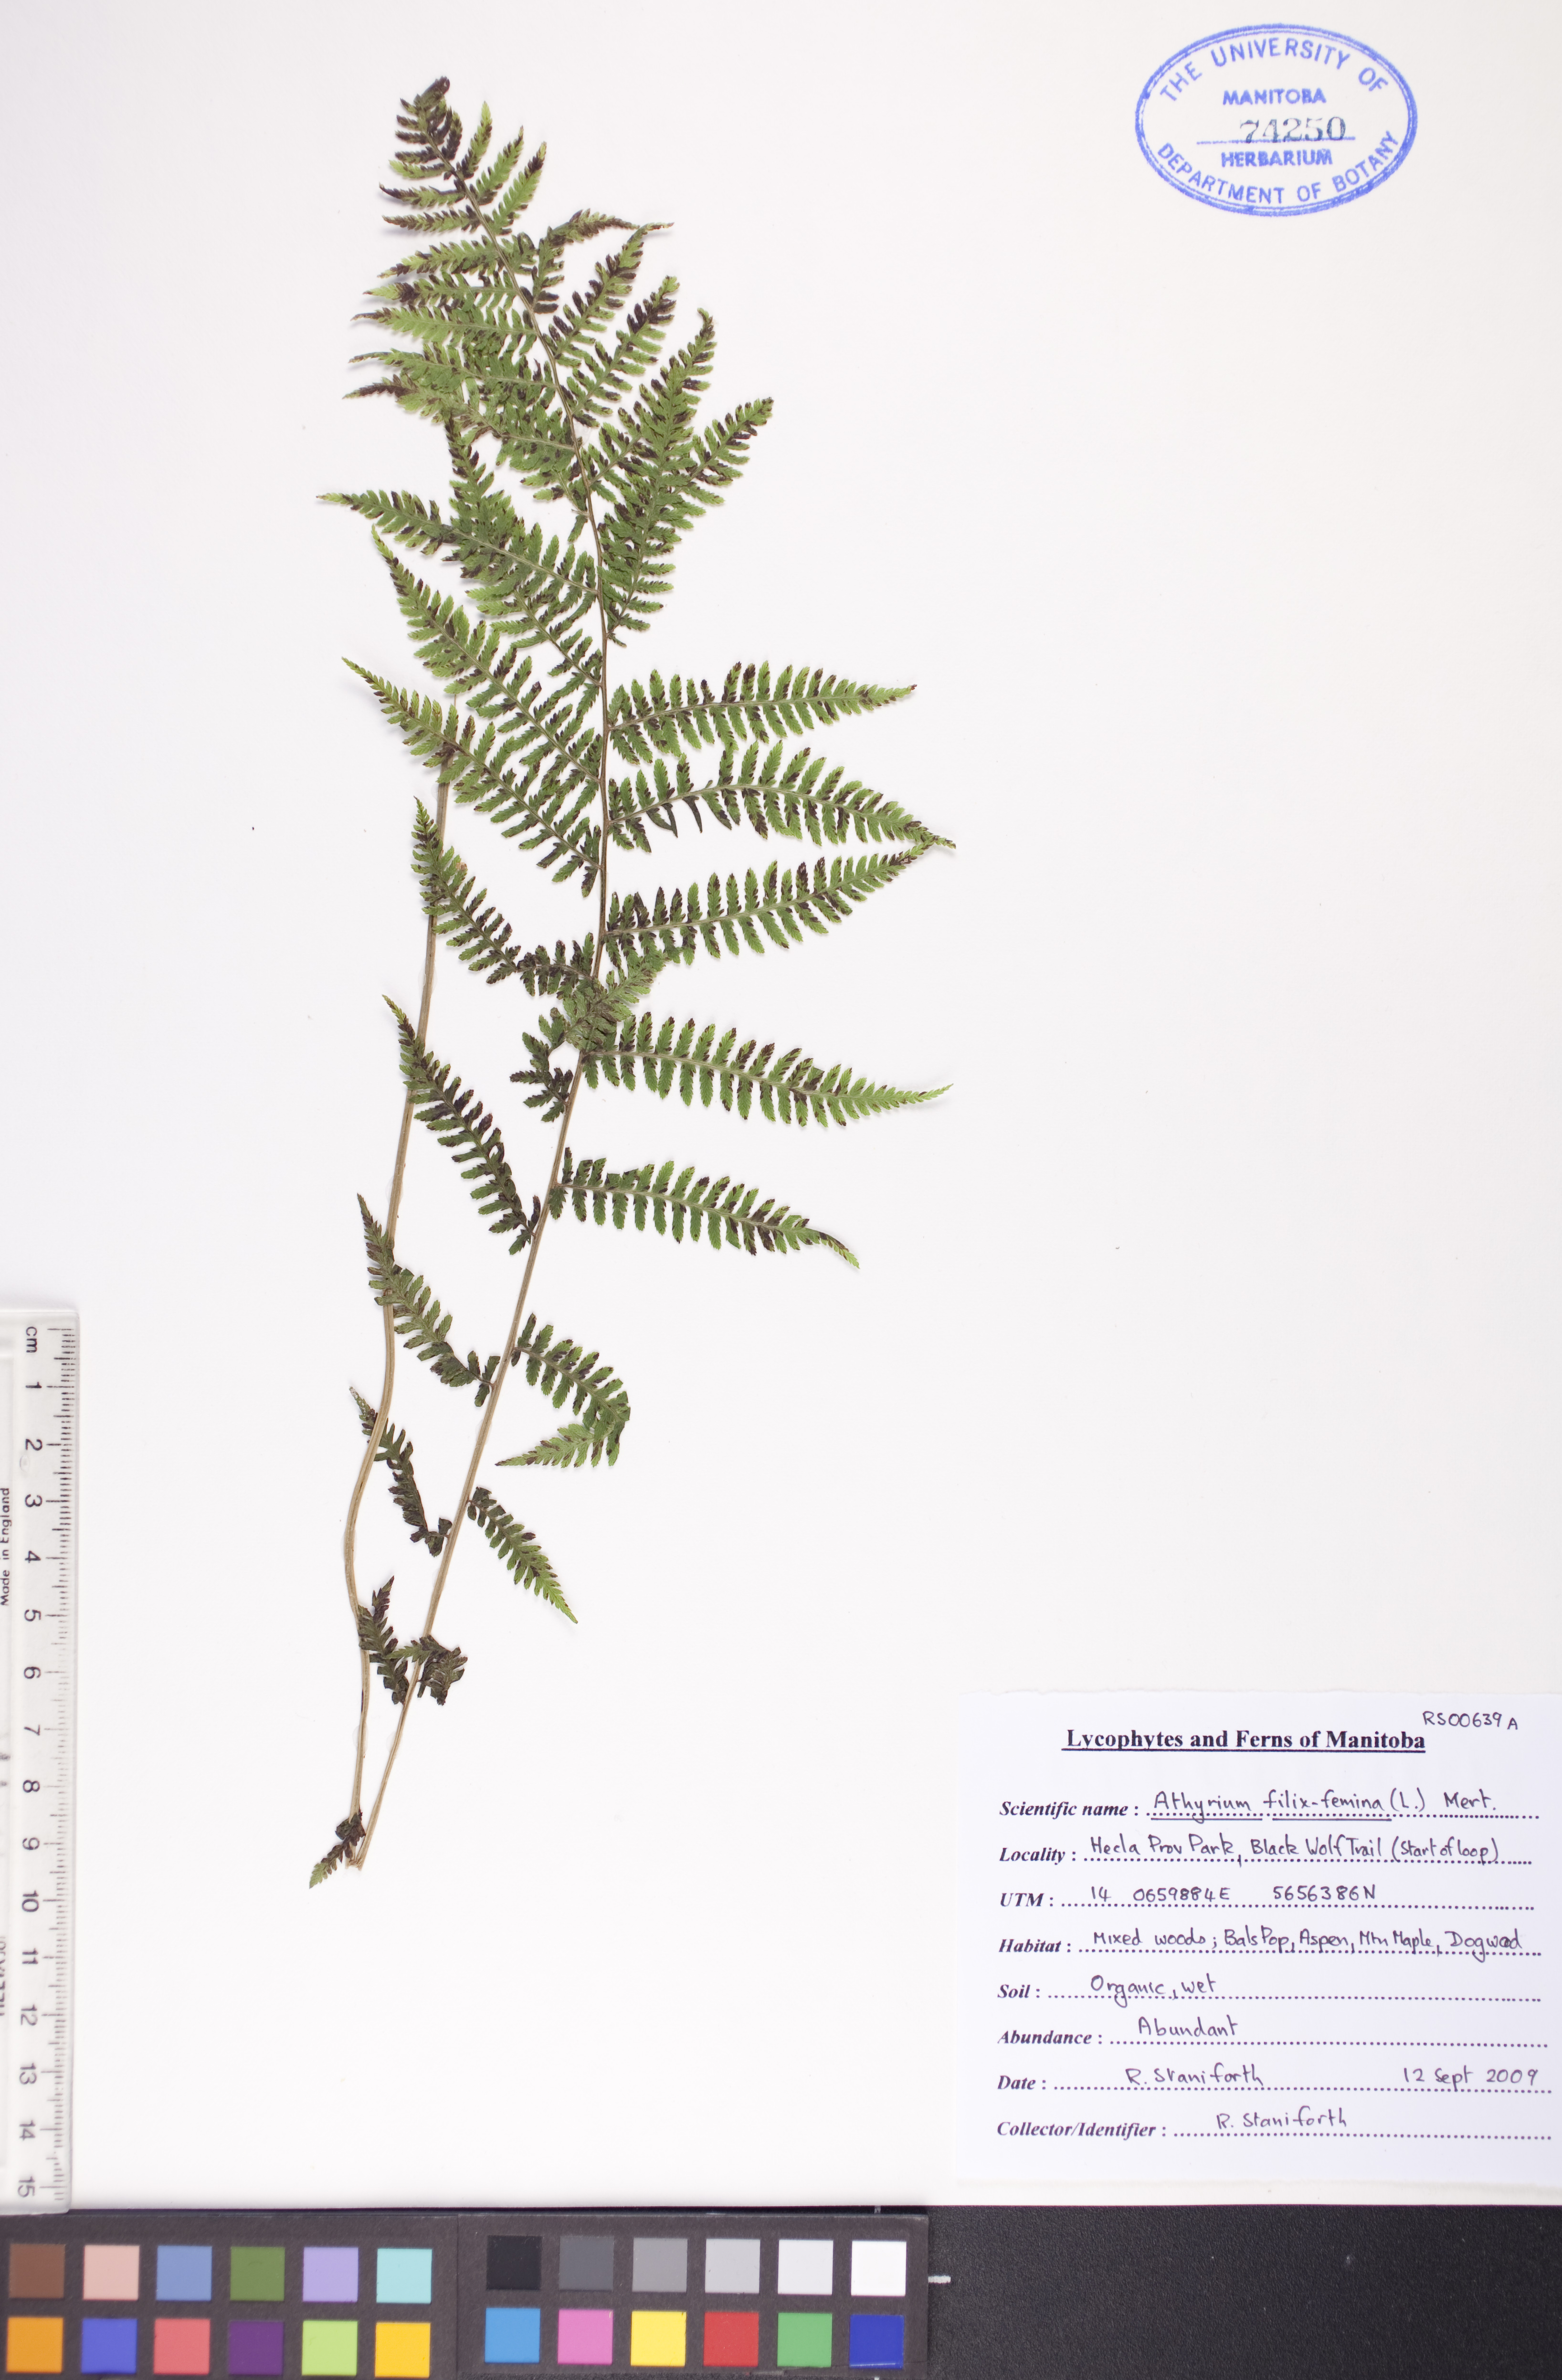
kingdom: Plantae
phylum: Tracheophyta
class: Polypodiopsida
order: Polypodiales
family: Athyriaceae
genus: Athyrium
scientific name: Athyrium filix-femina
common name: Lady fern
